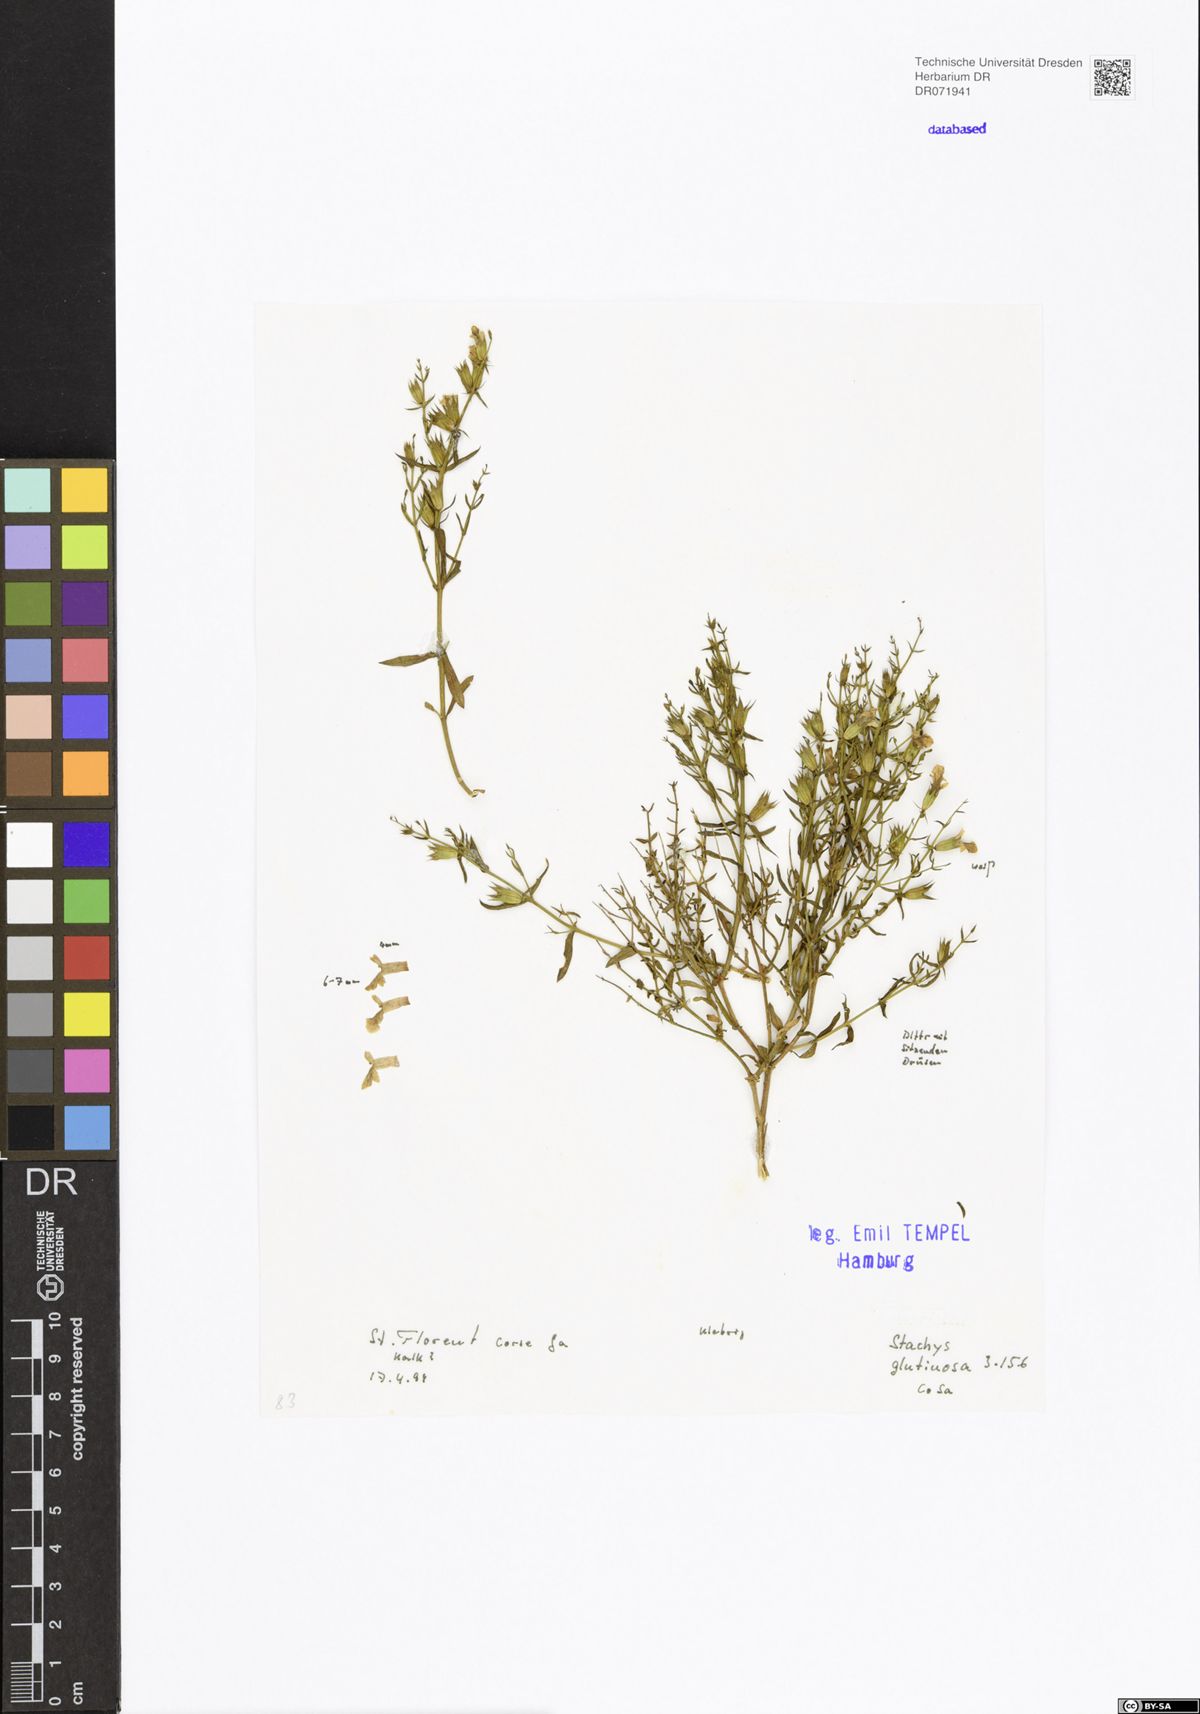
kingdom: Plantae
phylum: Tracheophyta
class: Magnoliopsida
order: Lamiales
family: Lamiaceae
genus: Stachys
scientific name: Stachys glutinosa
